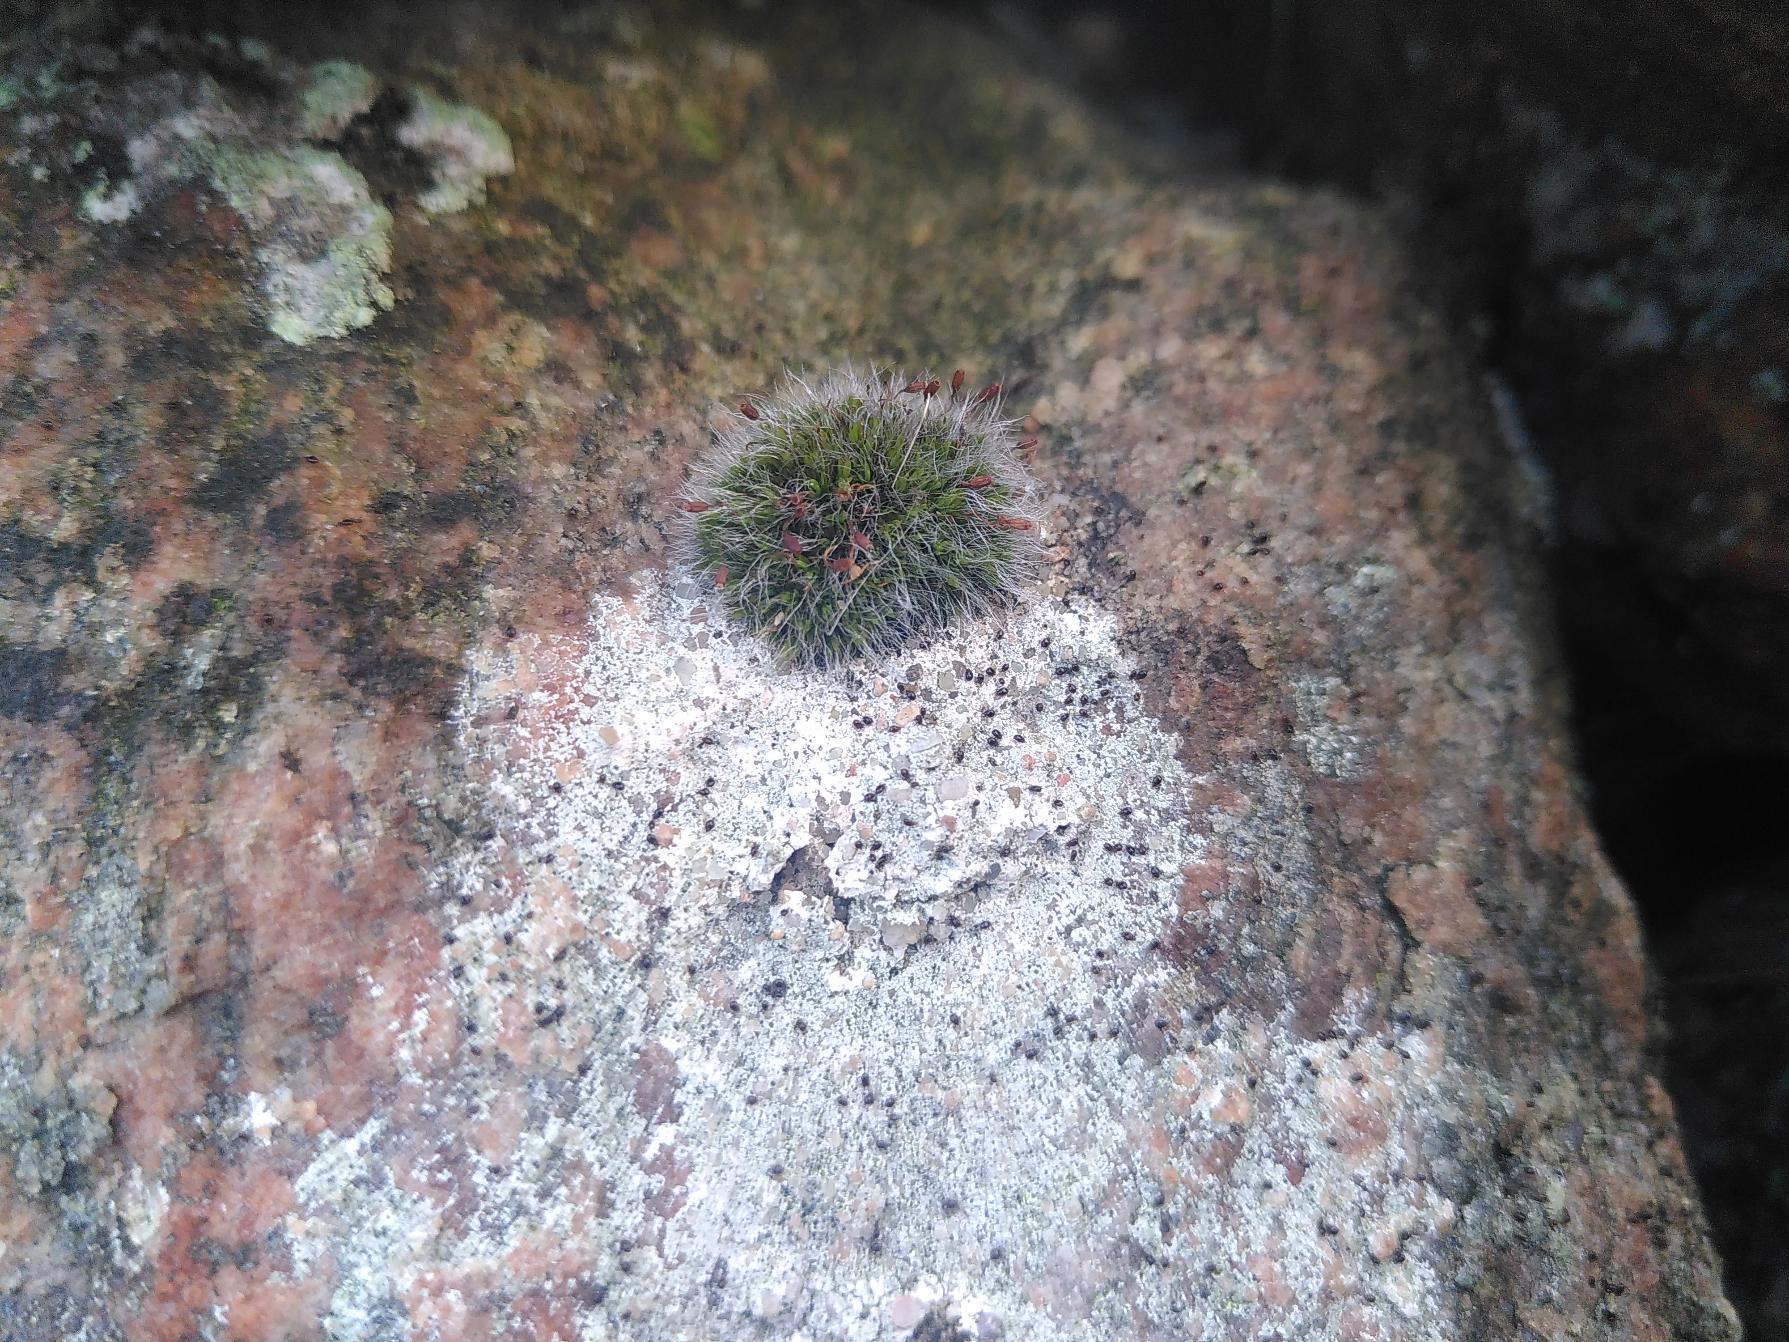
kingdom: Plantae
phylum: Bryophyta
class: Bryopsida
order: Grimmiales
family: Grimmiaceae
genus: Grimmia
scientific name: Grimmia pulvinata
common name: Pude-gråmos
